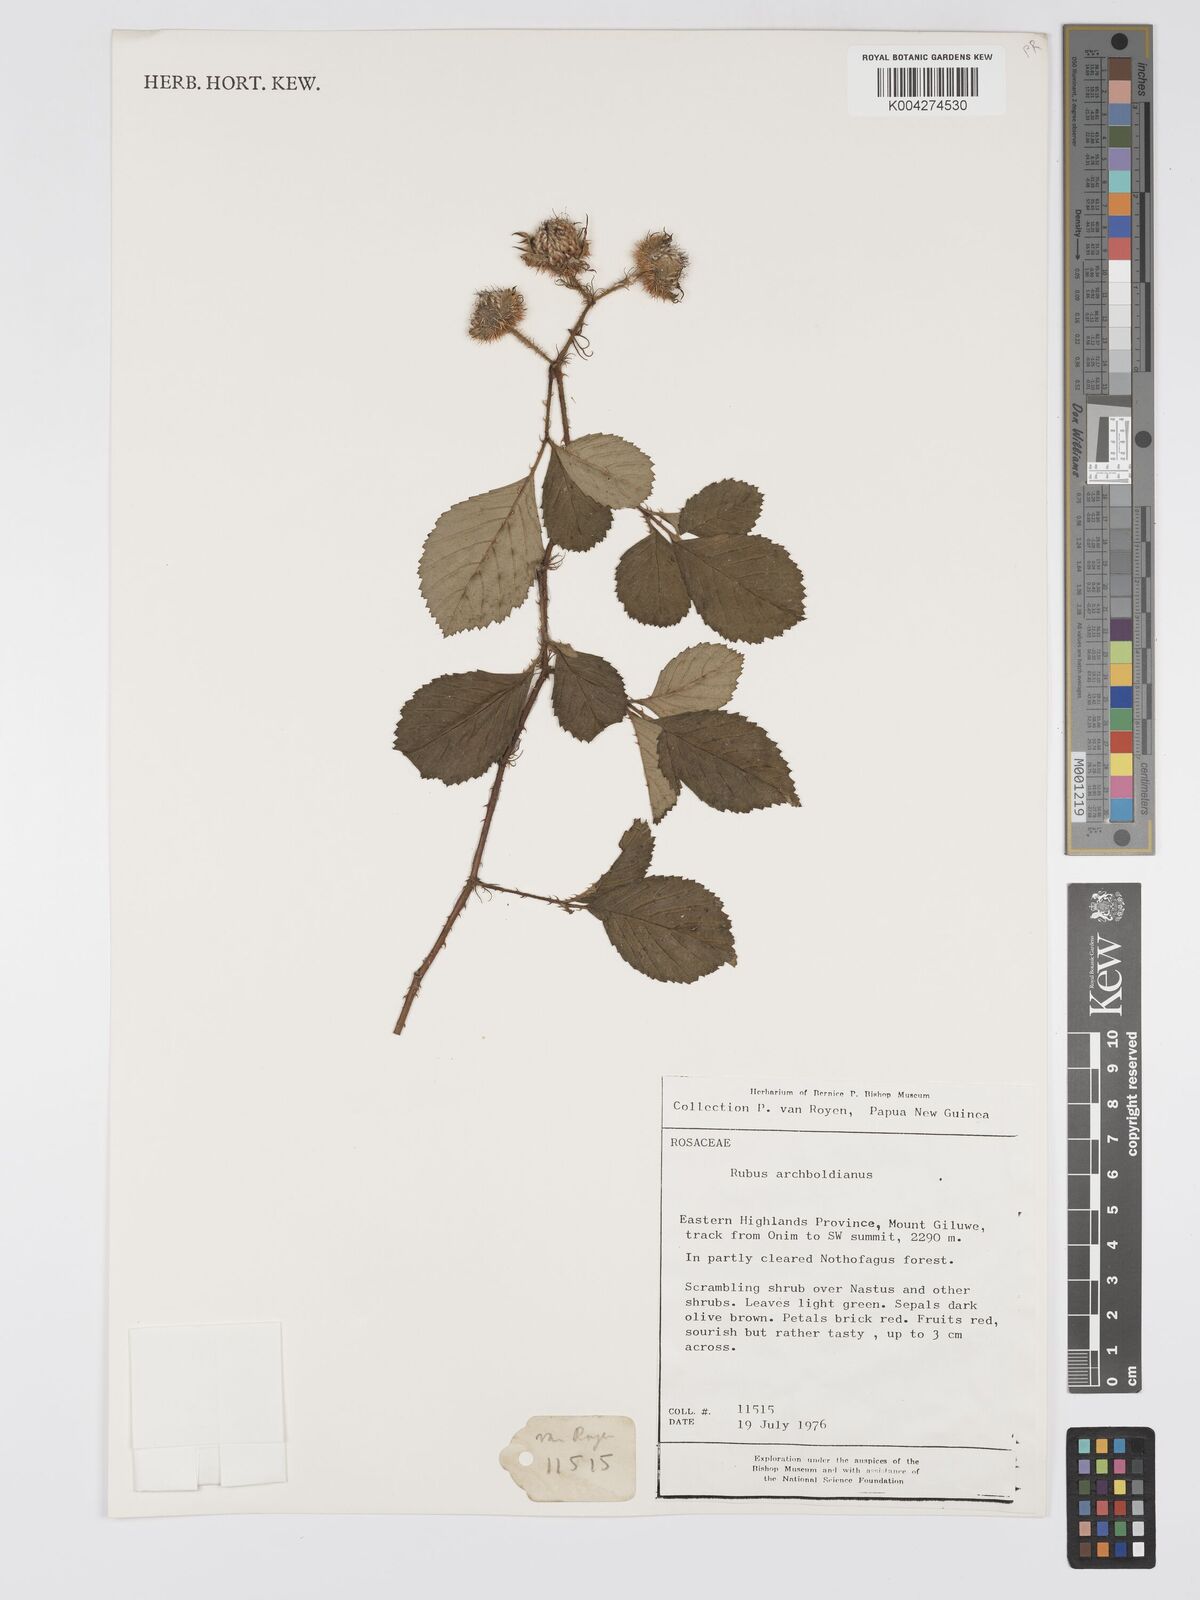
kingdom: Plantae
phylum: Tracheophyta
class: Magnoliopsida
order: Rosales
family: Rosaceae
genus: Rubus
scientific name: Rubus archboldianus
